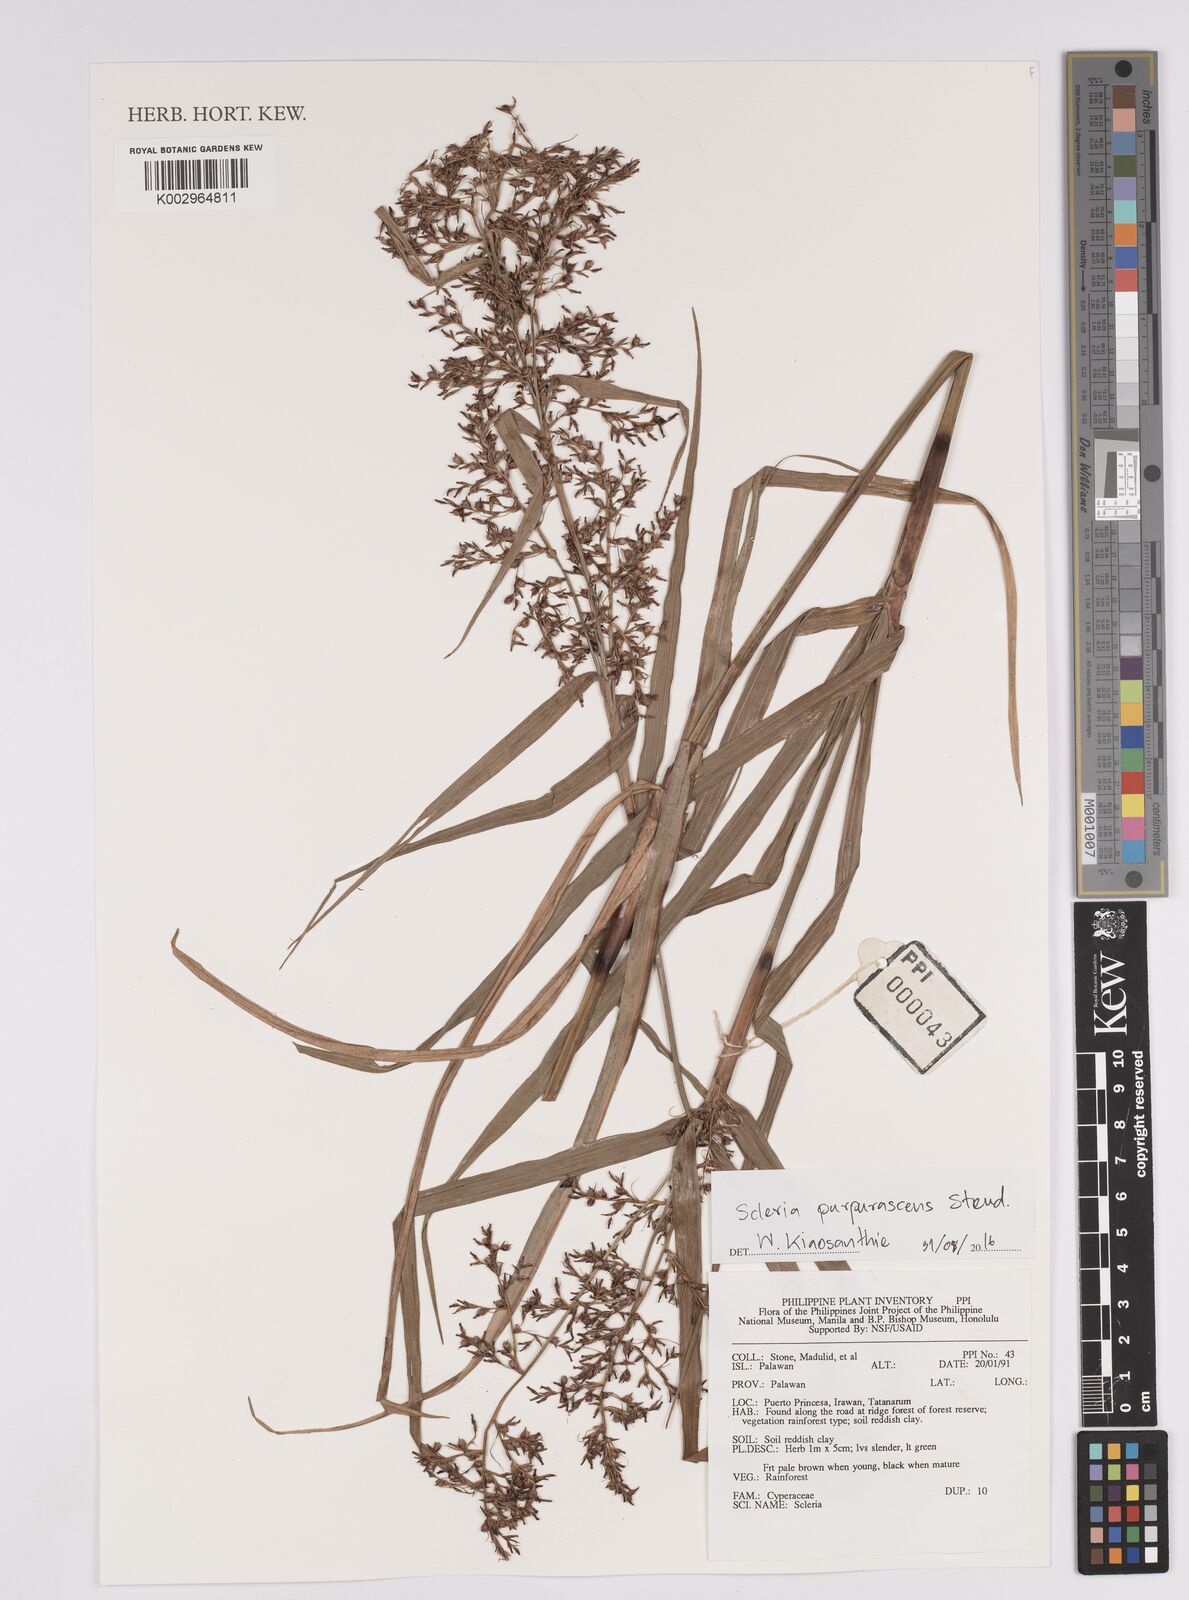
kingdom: Plantae
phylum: Tracheophyta
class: Liliopsida
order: Poales
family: Cyperaceae
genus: Scleria
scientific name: Scleria purpurascens
